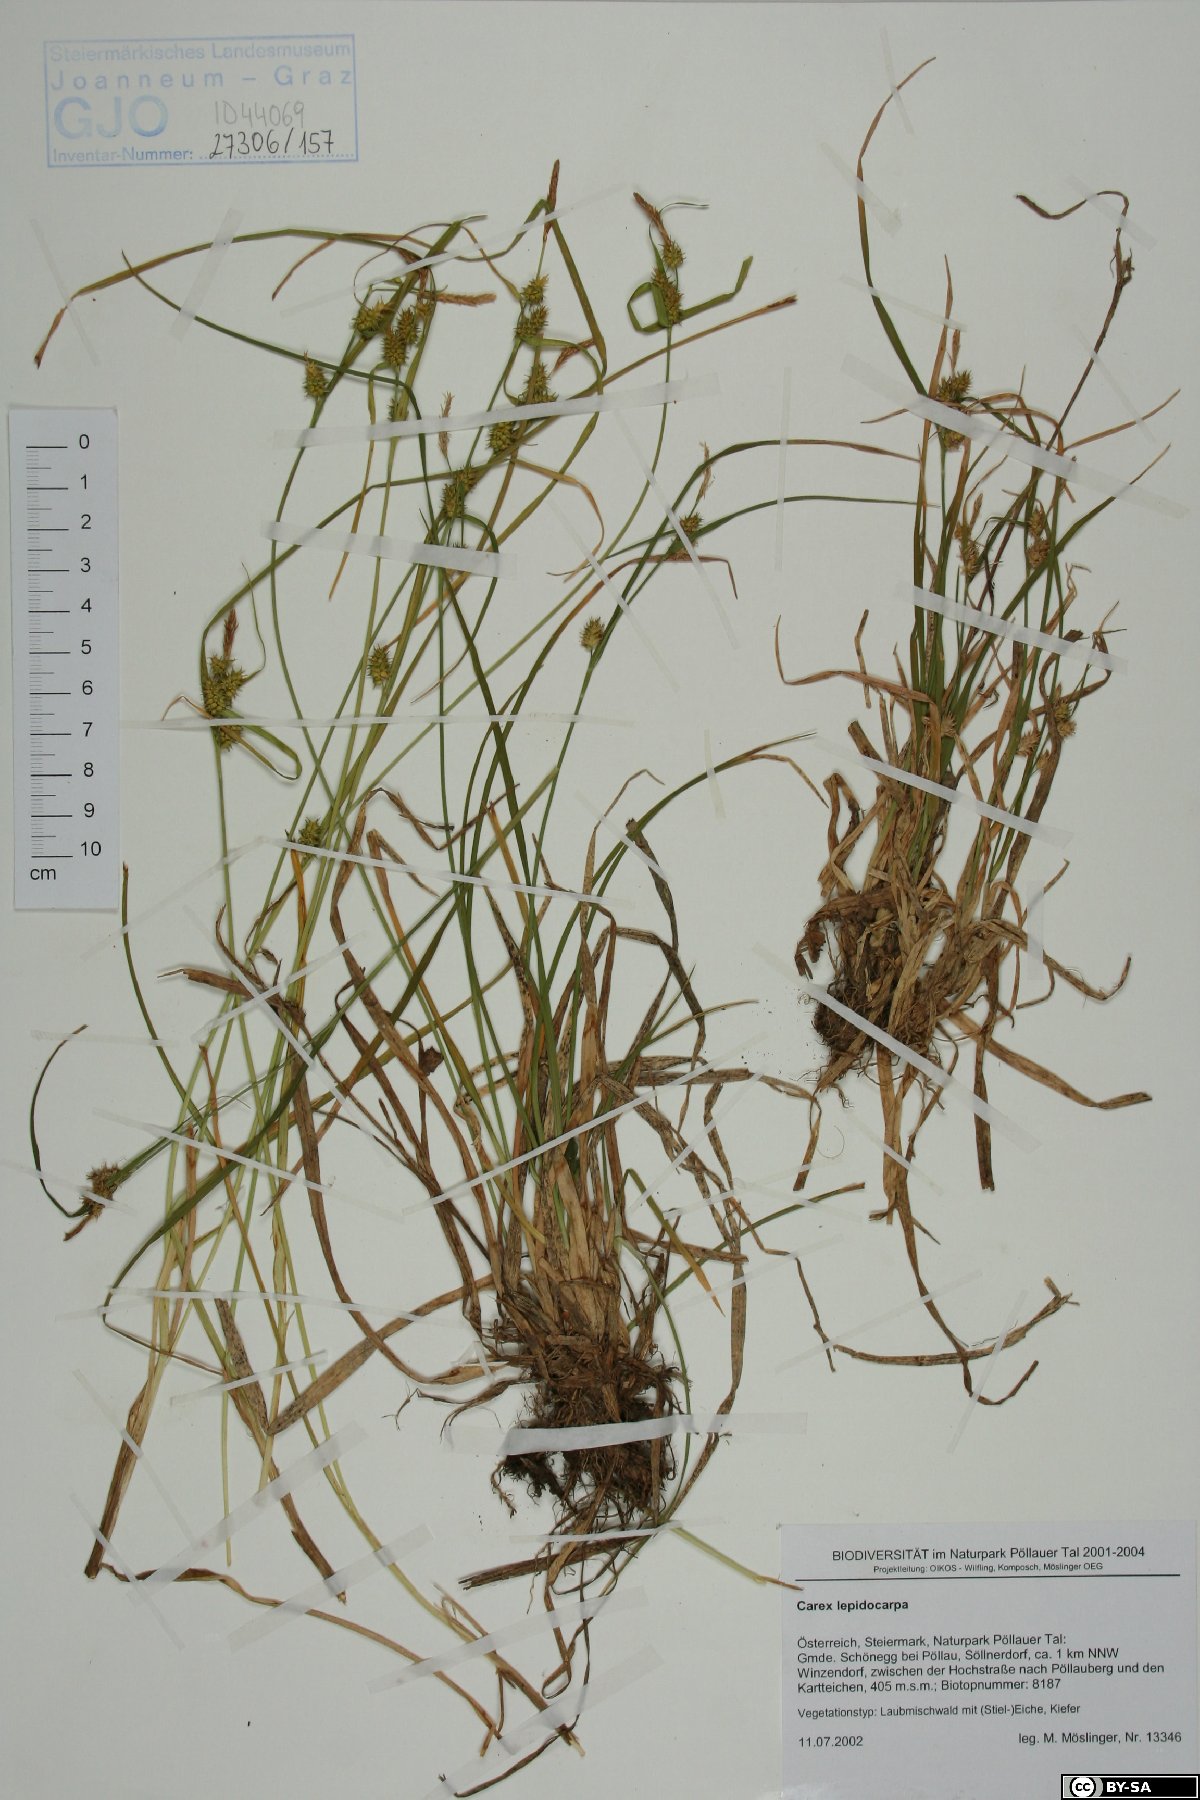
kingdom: Plantae
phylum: Tracheophyta
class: Liliopsida
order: Poales
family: Cyperaceae
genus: Carex
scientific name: Carex lepidocarpa
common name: Long-stalked yellow-sedge
